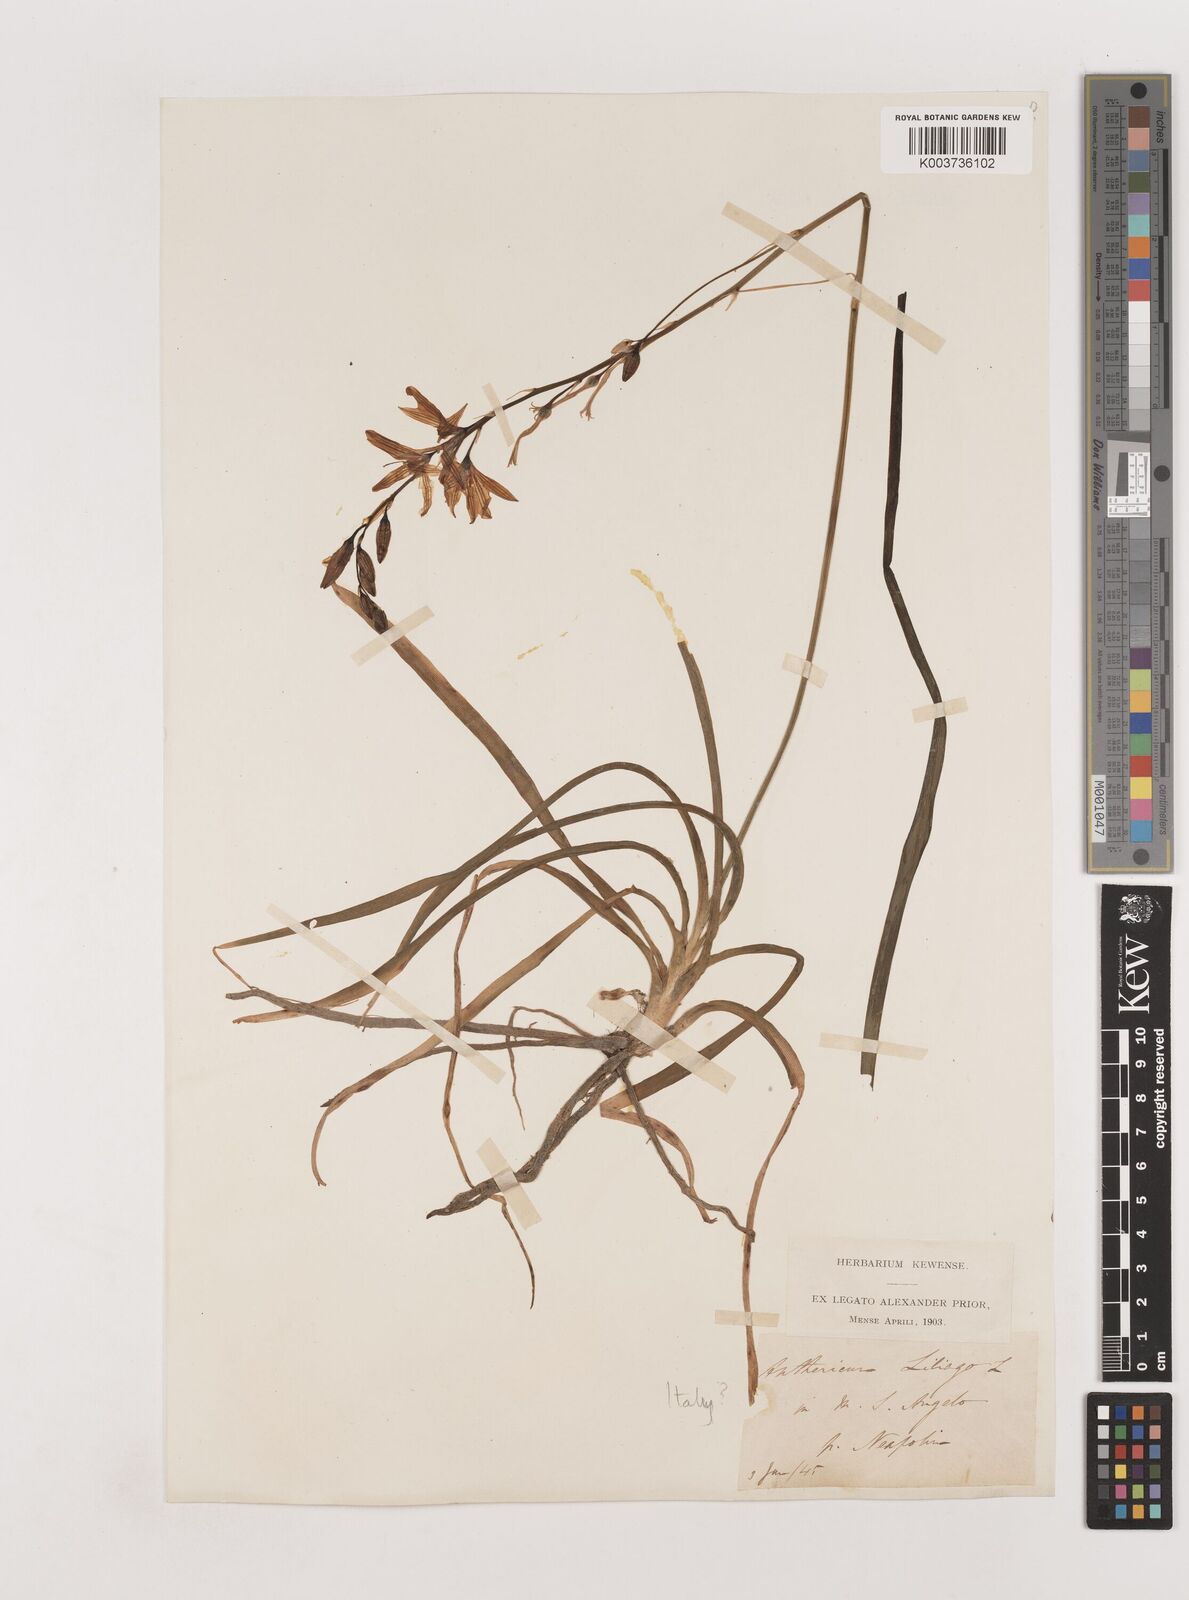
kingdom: Plantae
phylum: Tracheophyta
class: Liliopsida
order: Asparagales
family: Asparagaceae
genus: Anthericum
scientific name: Anthericum liliago
